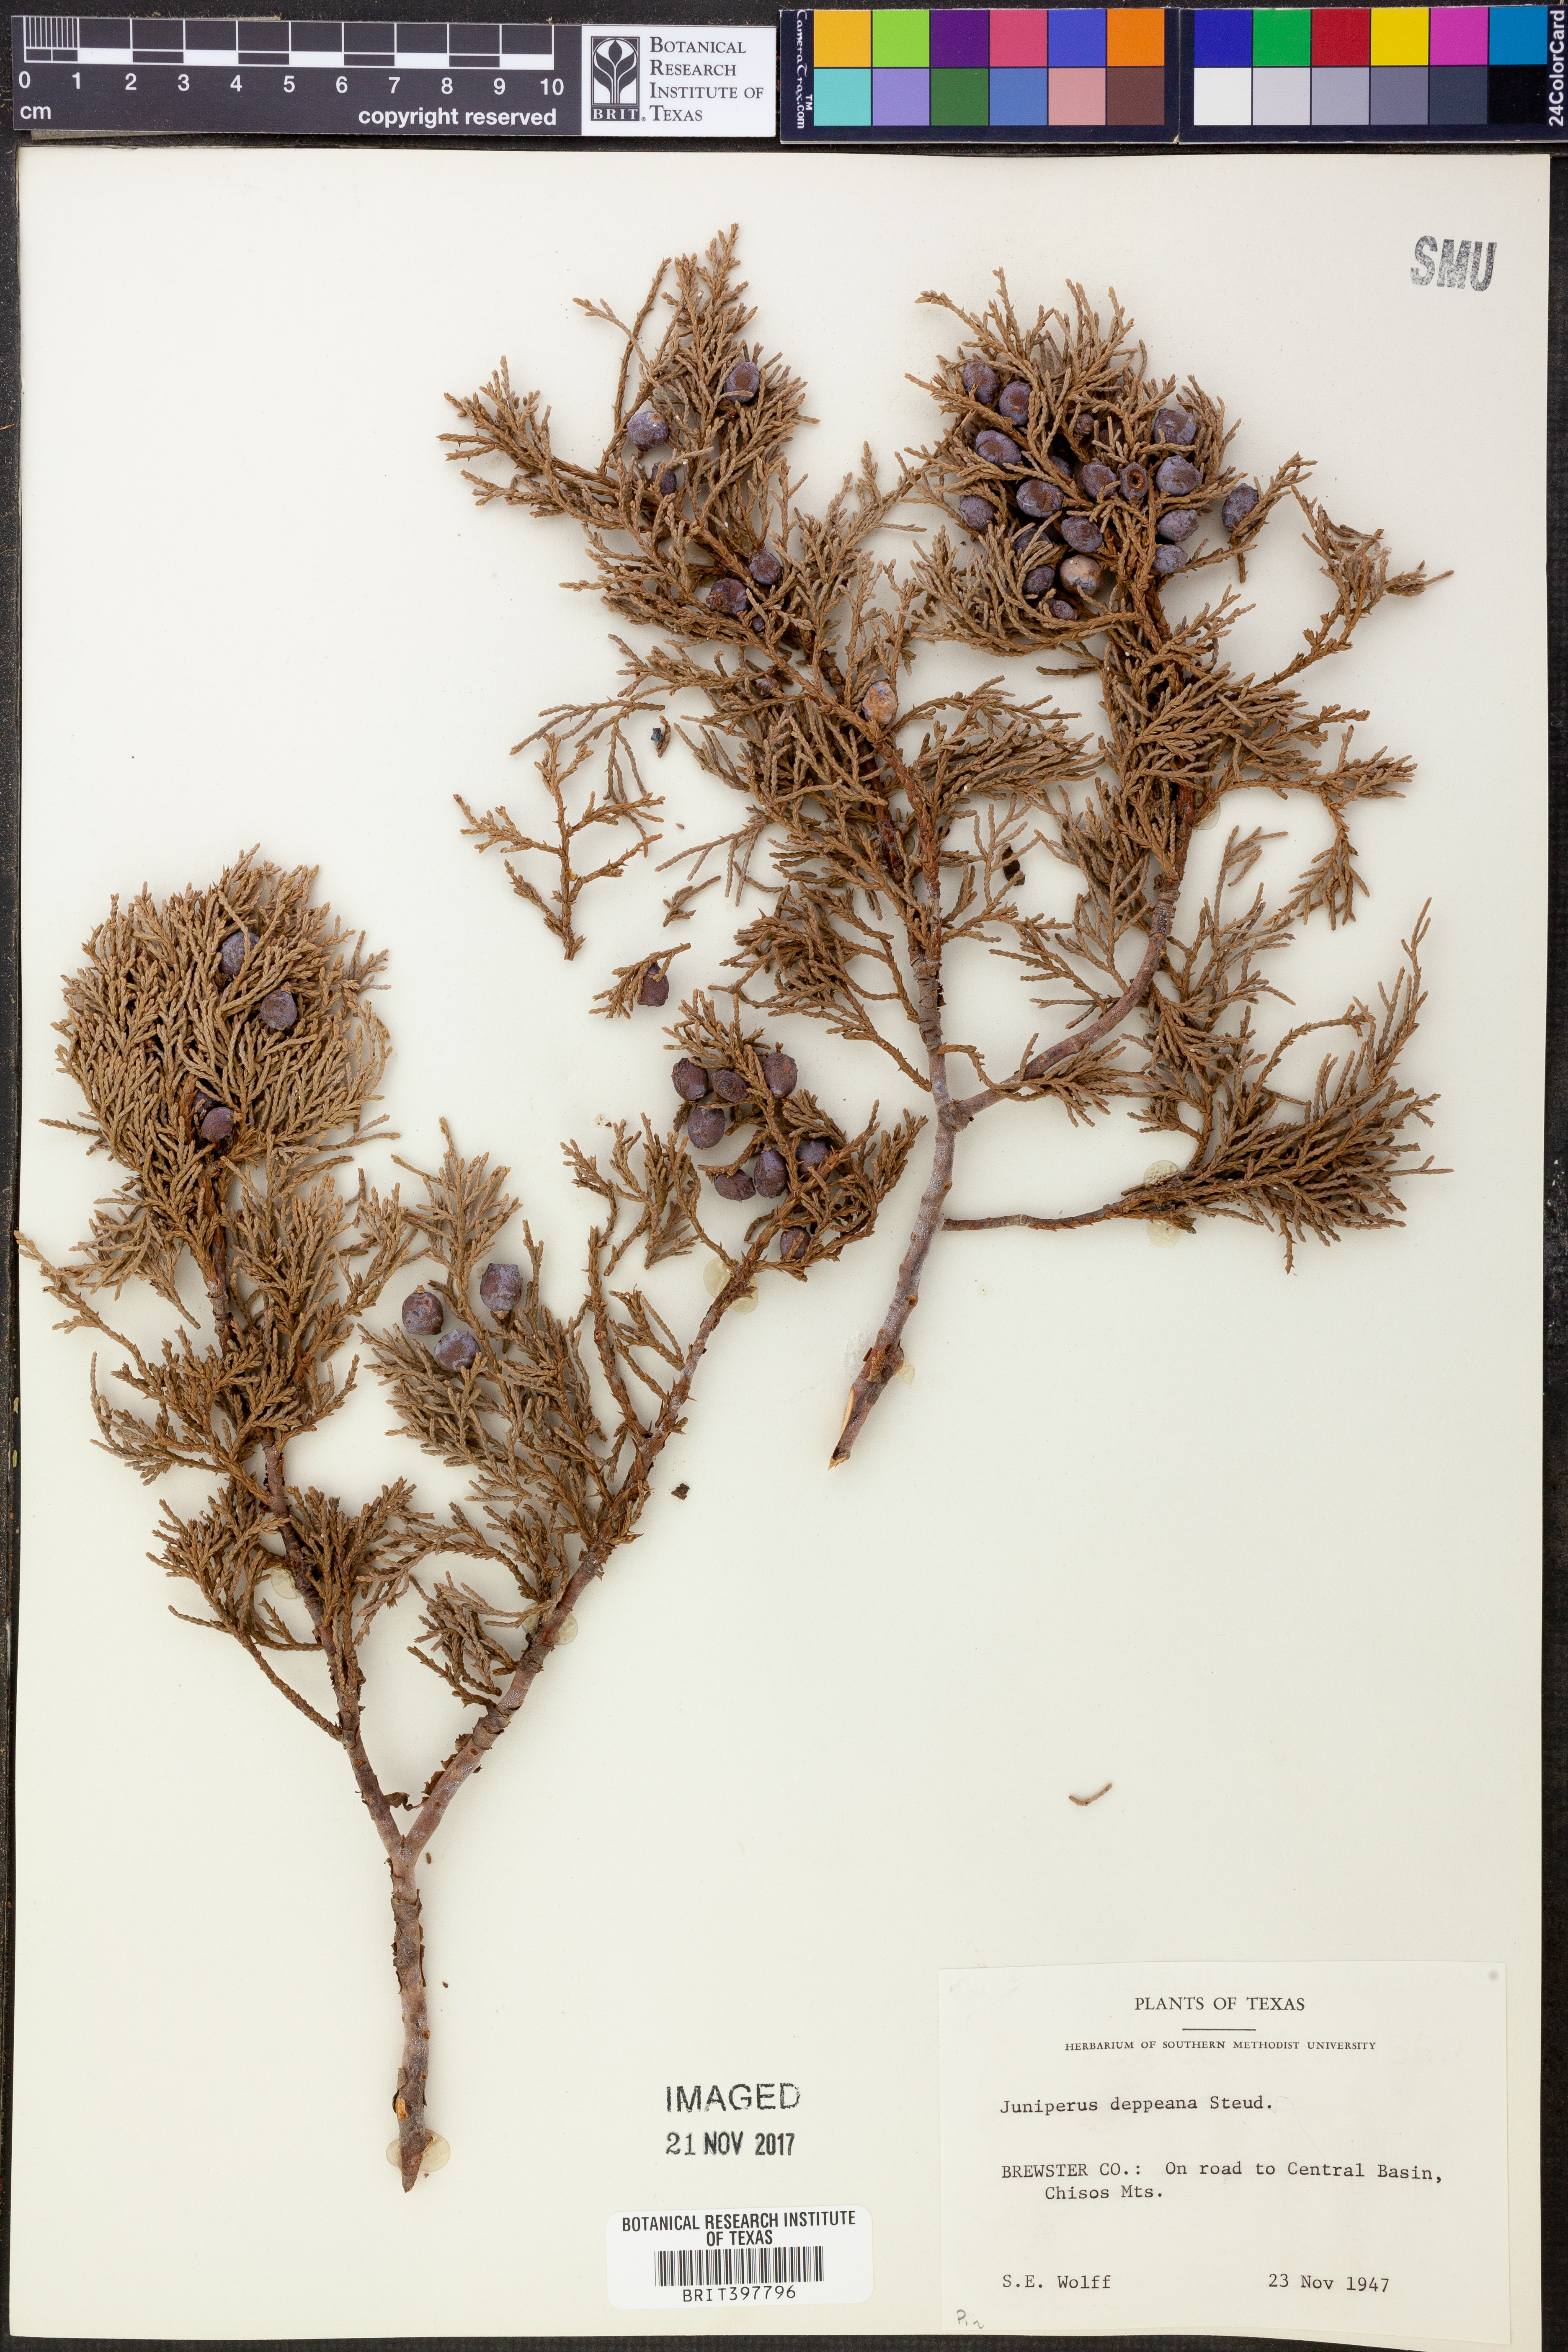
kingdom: Plantae
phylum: Tracheophyta
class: Pinopsida
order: Pinales
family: Cupressaceae
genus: Juniperus
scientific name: Juniperus deppeana
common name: Alligator juniper
